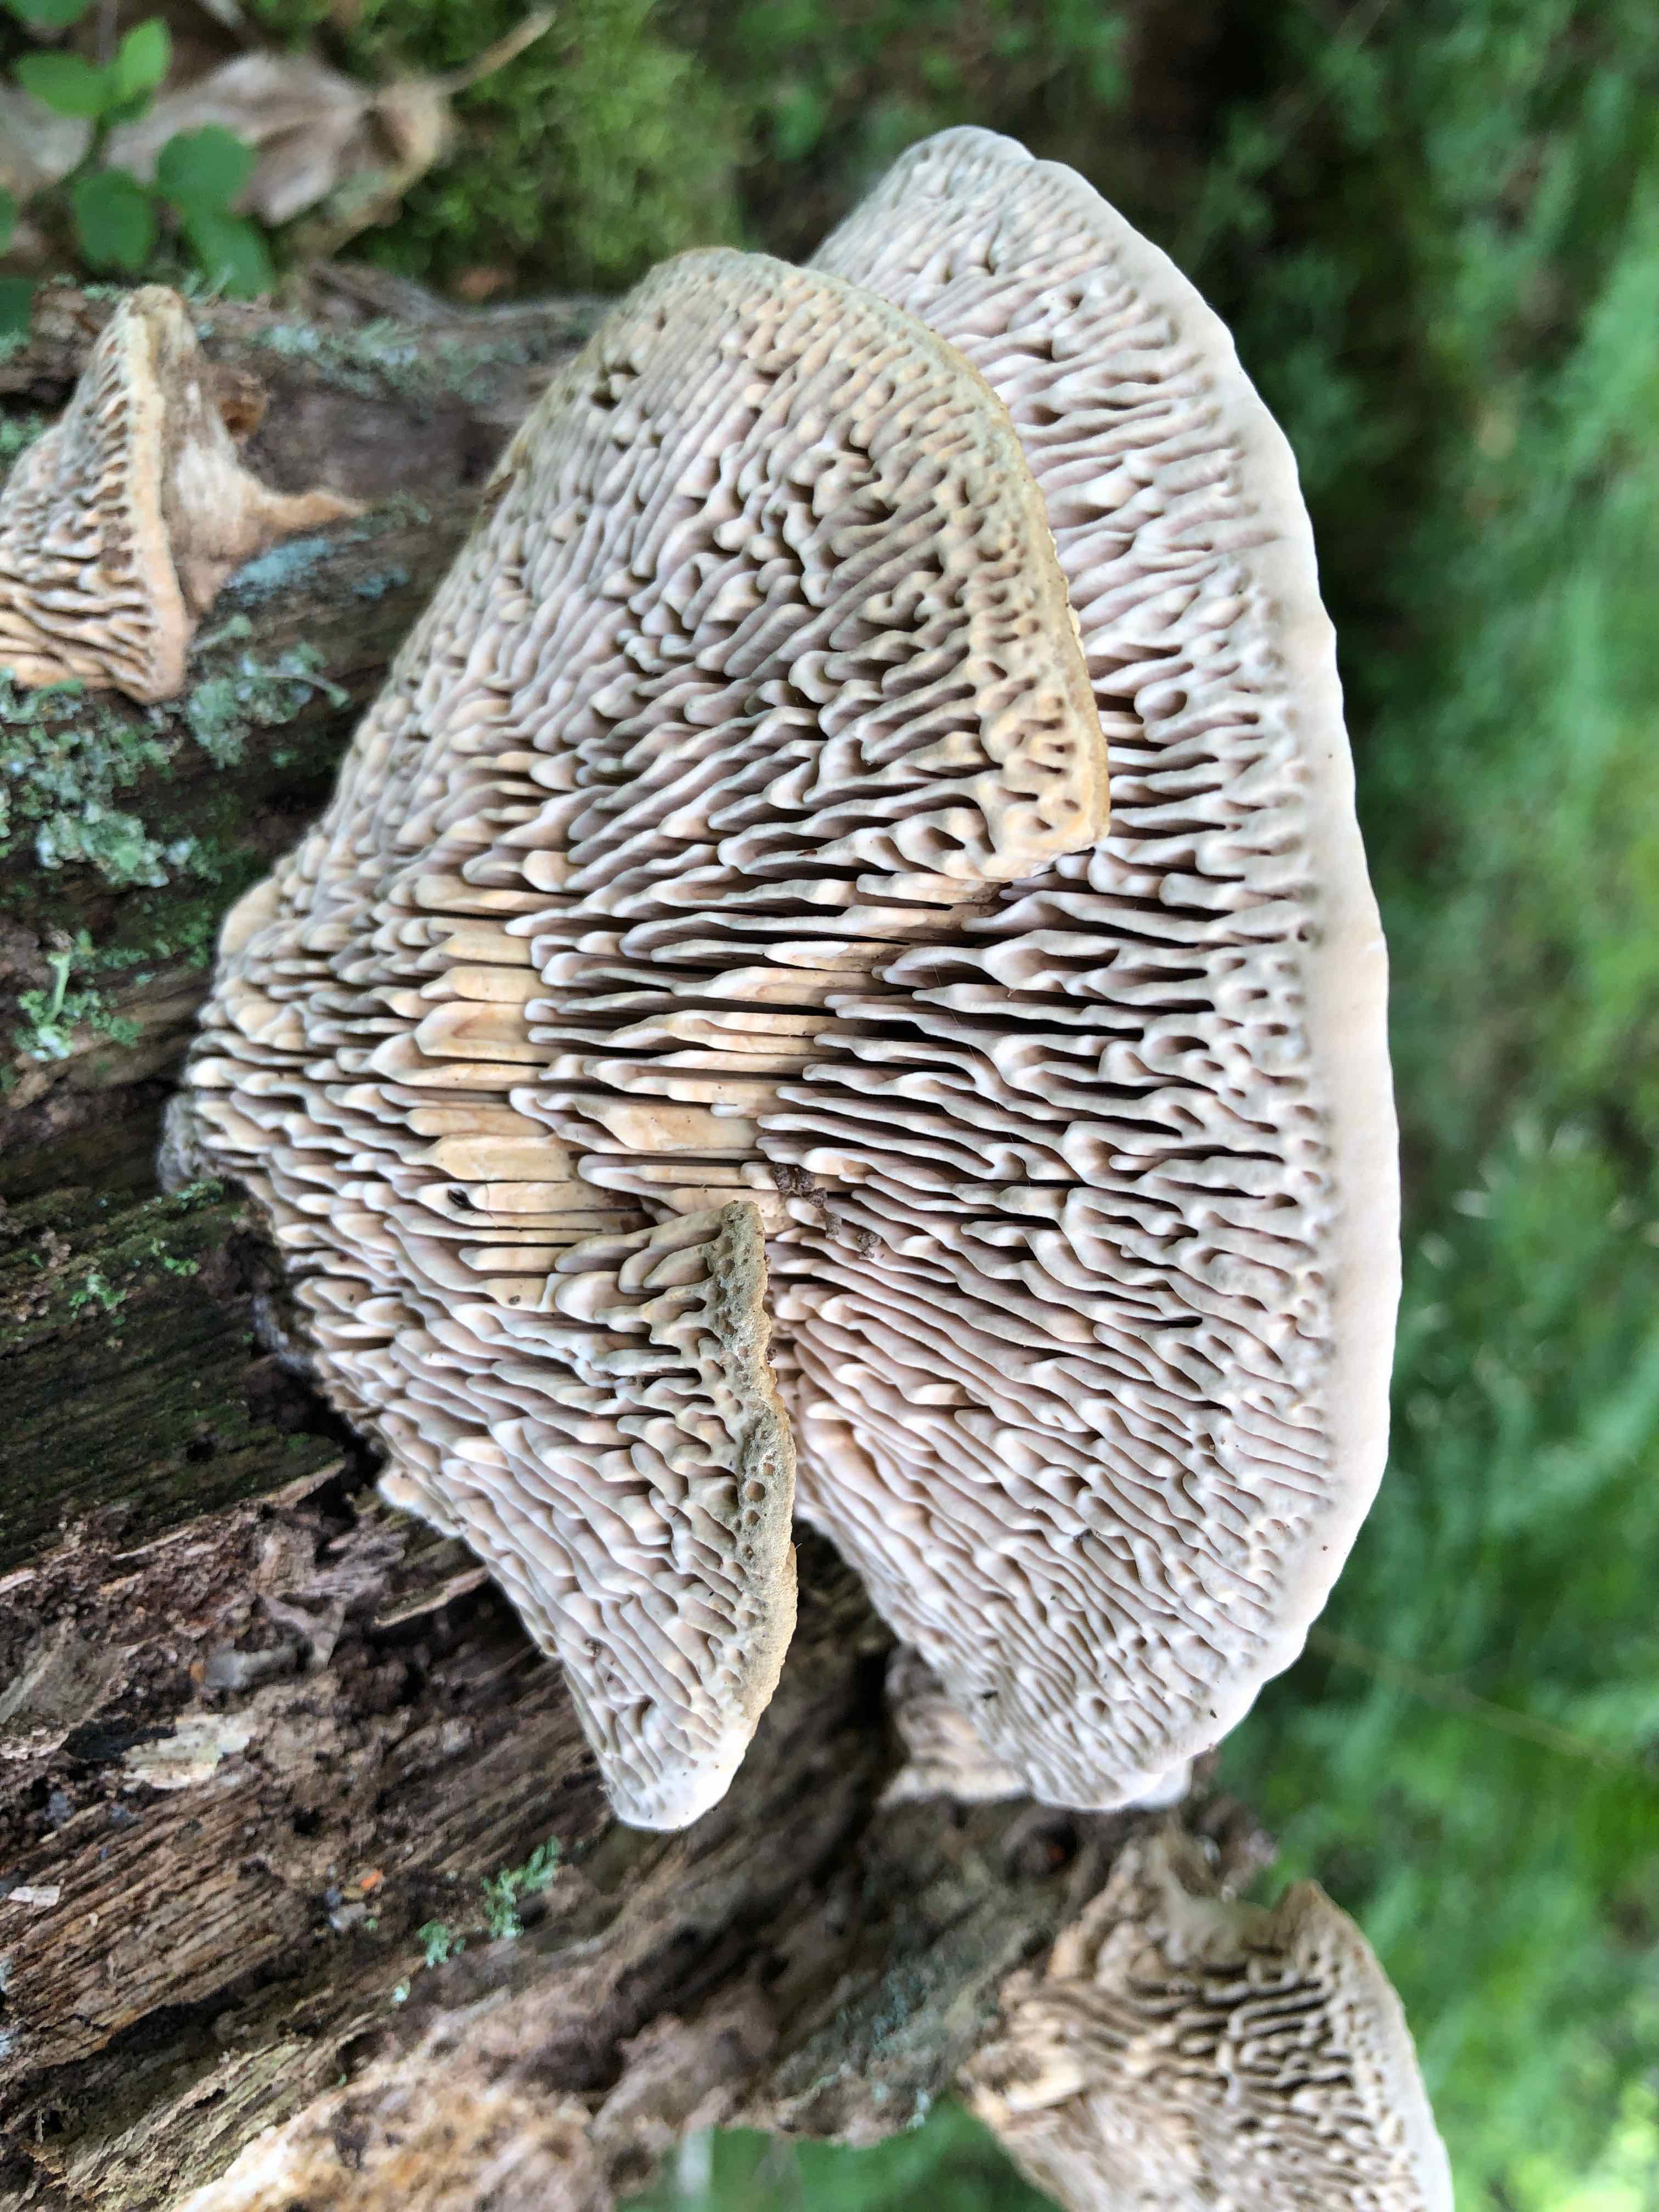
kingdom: Fungi
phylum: Basidiomycota
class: Agaricomycetes
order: Polyporales
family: Fomitopsidaceae
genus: Daedalea
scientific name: Daedalea quercina
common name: ege-labyrintsvamp
